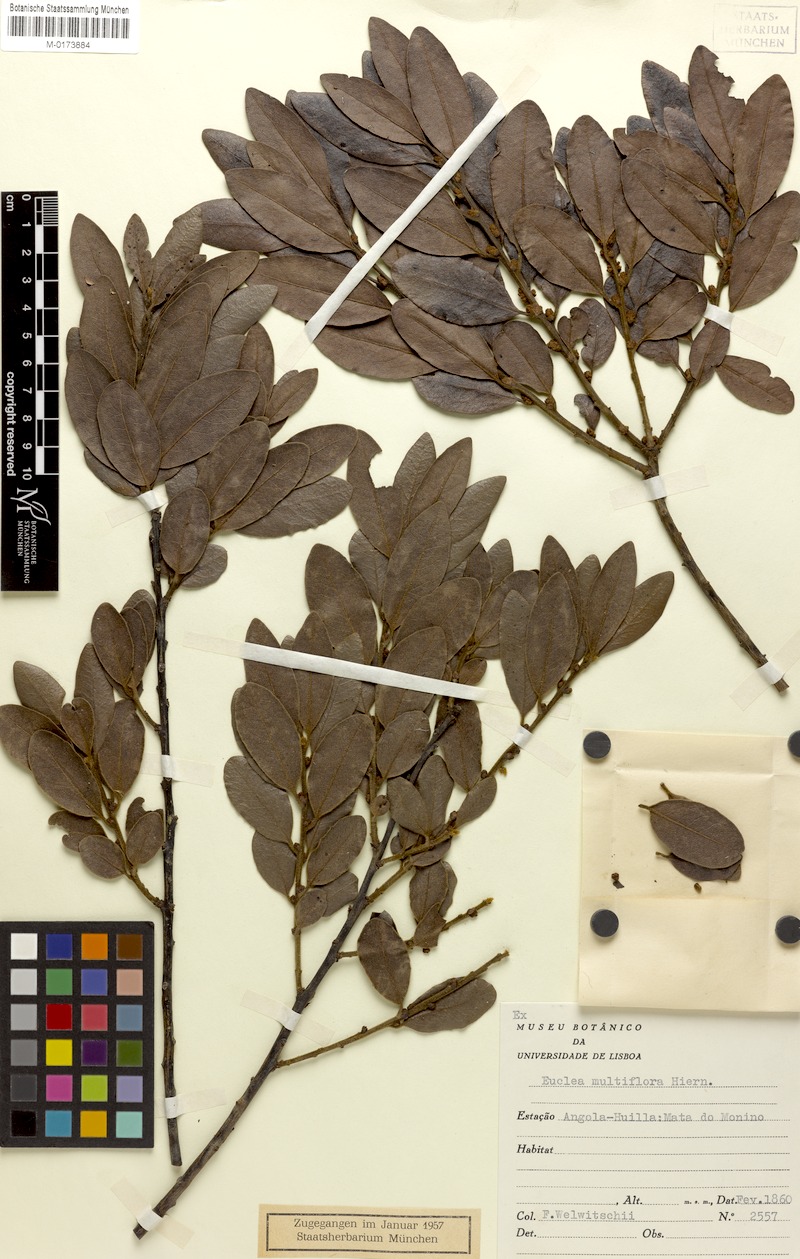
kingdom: Plantae
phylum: Tracheophyta
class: Magnoliopsida
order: Ericales
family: Ebenaceae
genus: Euclea
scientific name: Euclea natalensis
